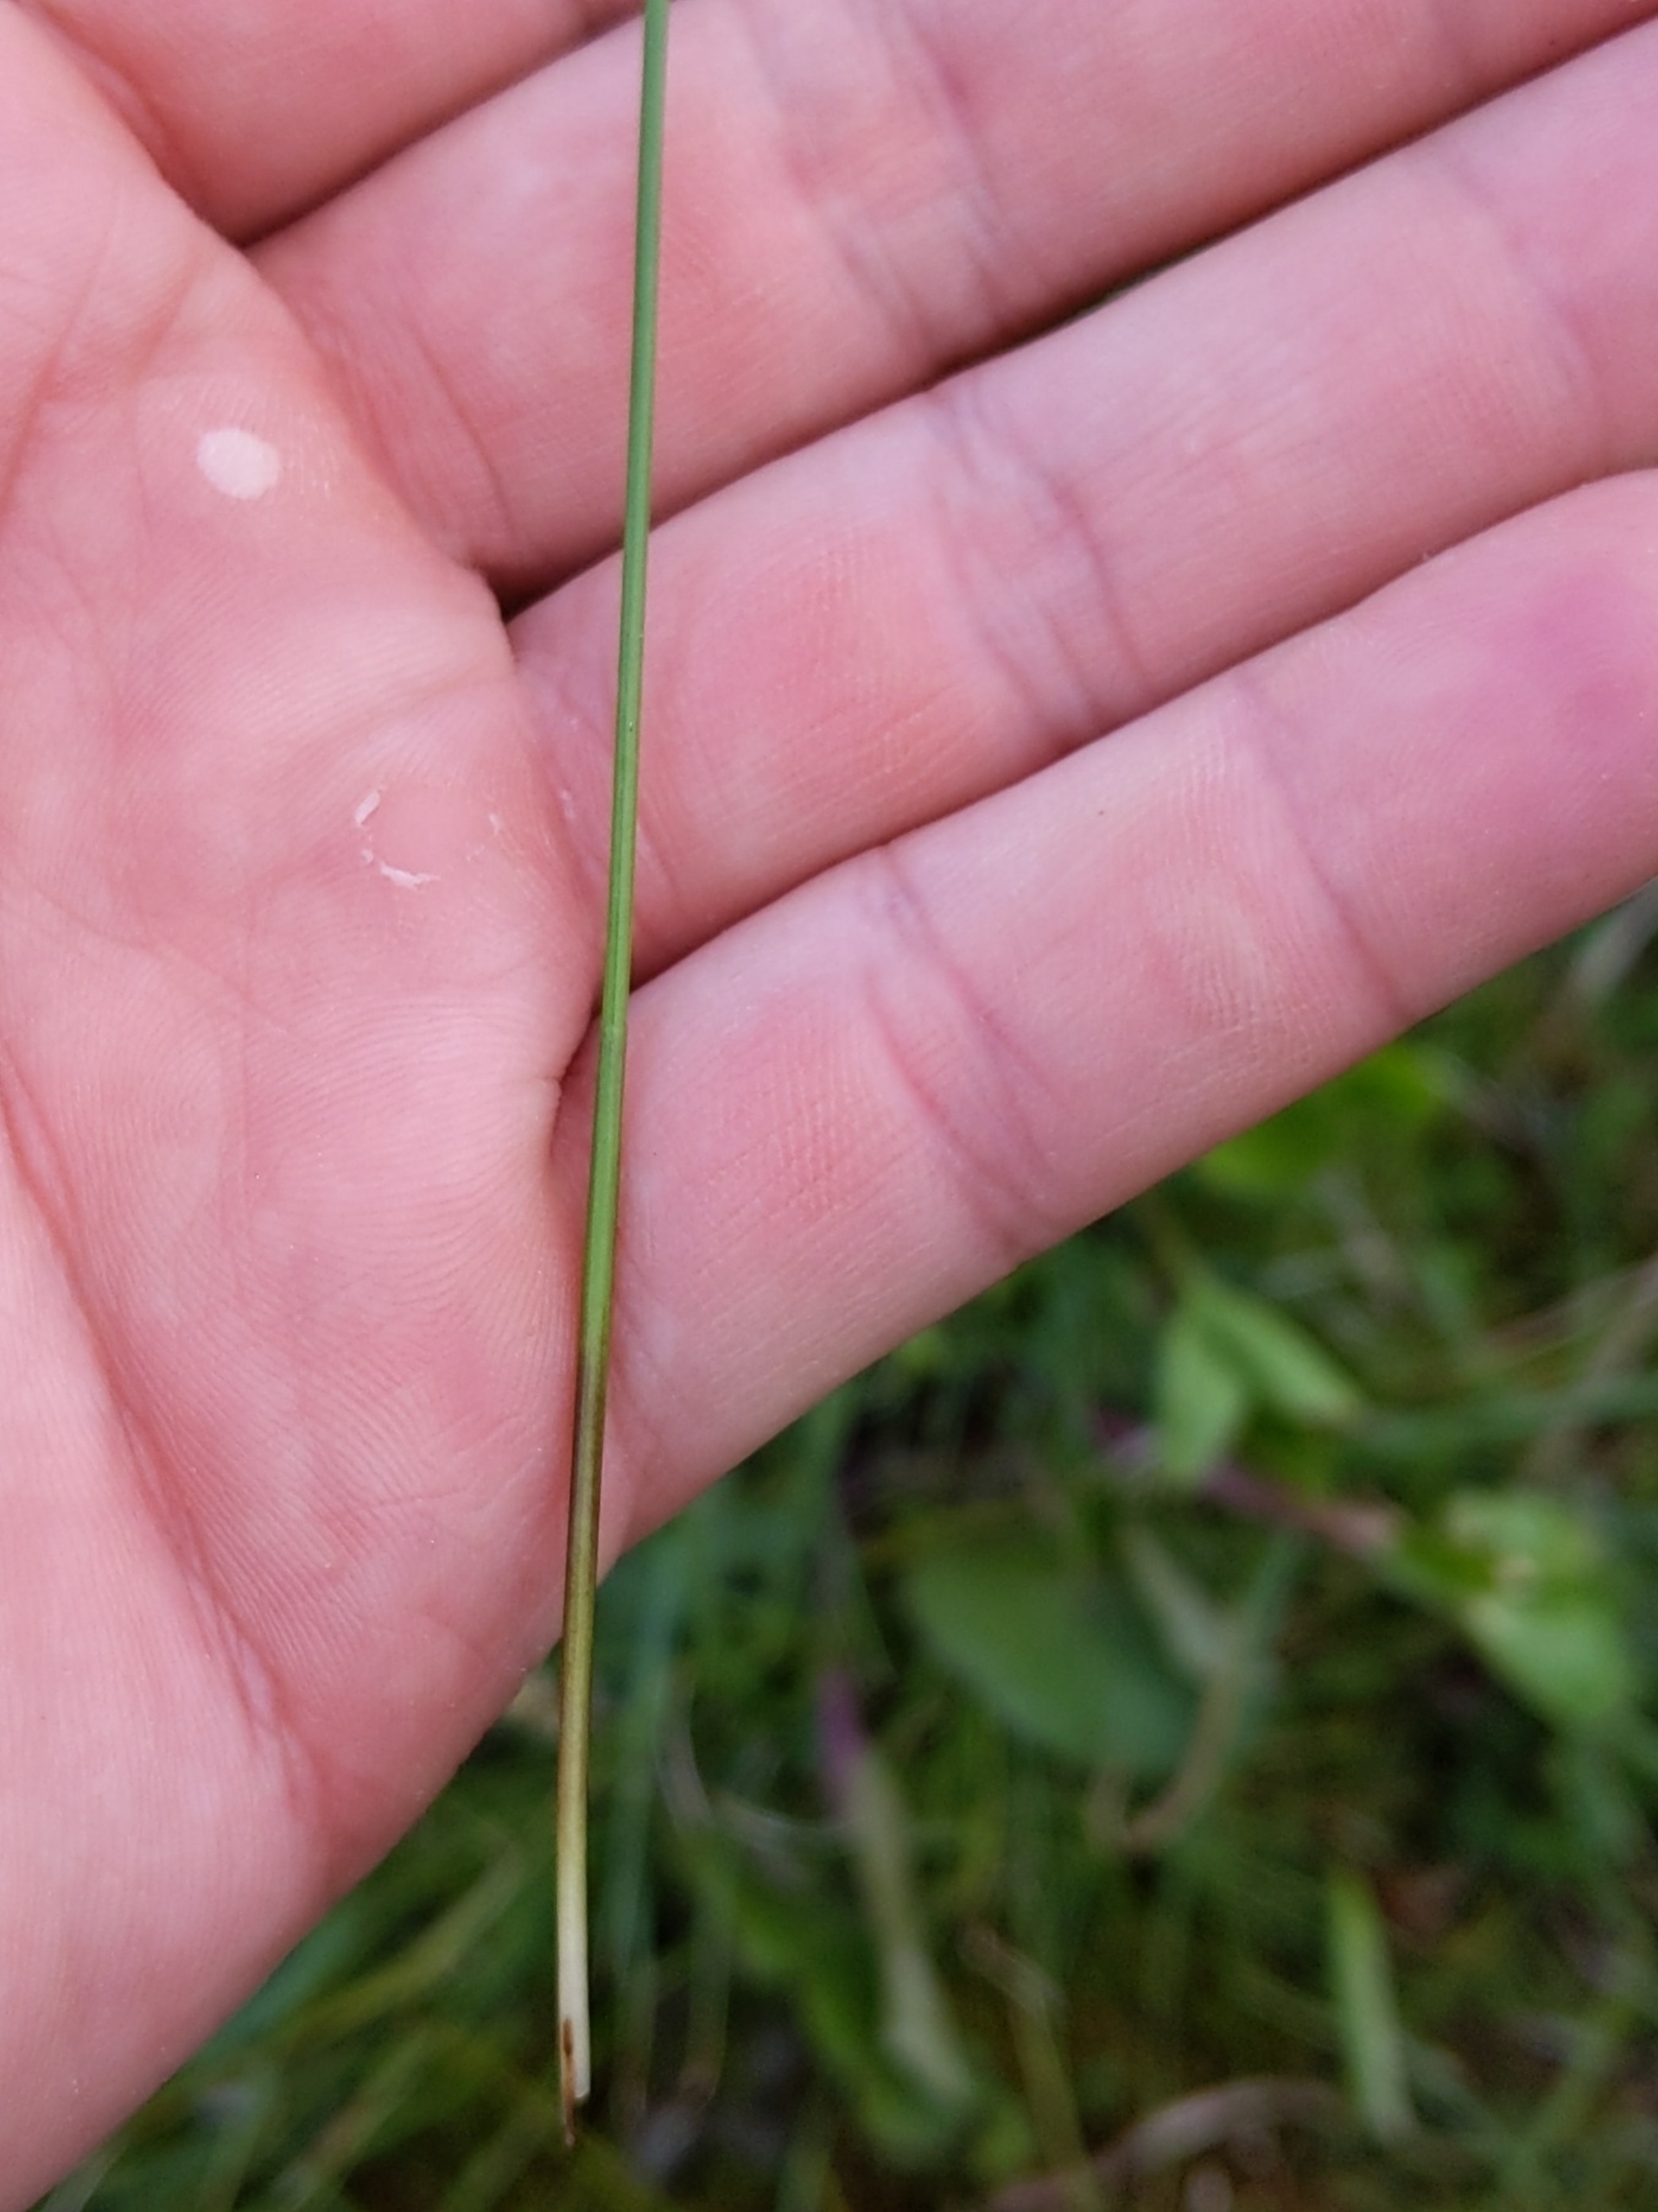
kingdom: Plantae
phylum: Tracheophyta
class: Liliopsida
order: Poales
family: Cyperaceae
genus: Eleocharis
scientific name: Eleocharis palustris
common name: Almindelig sumpstrå
